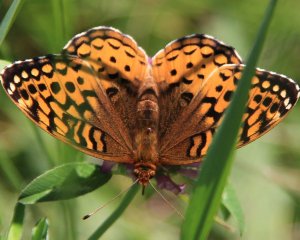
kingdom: Animalia
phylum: Arthropoda
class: Insecta
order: Lepidoptera
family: Nymphalidae
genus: Speyeria
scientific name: Speyeria cybele
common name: Great Spangled Fritillary
